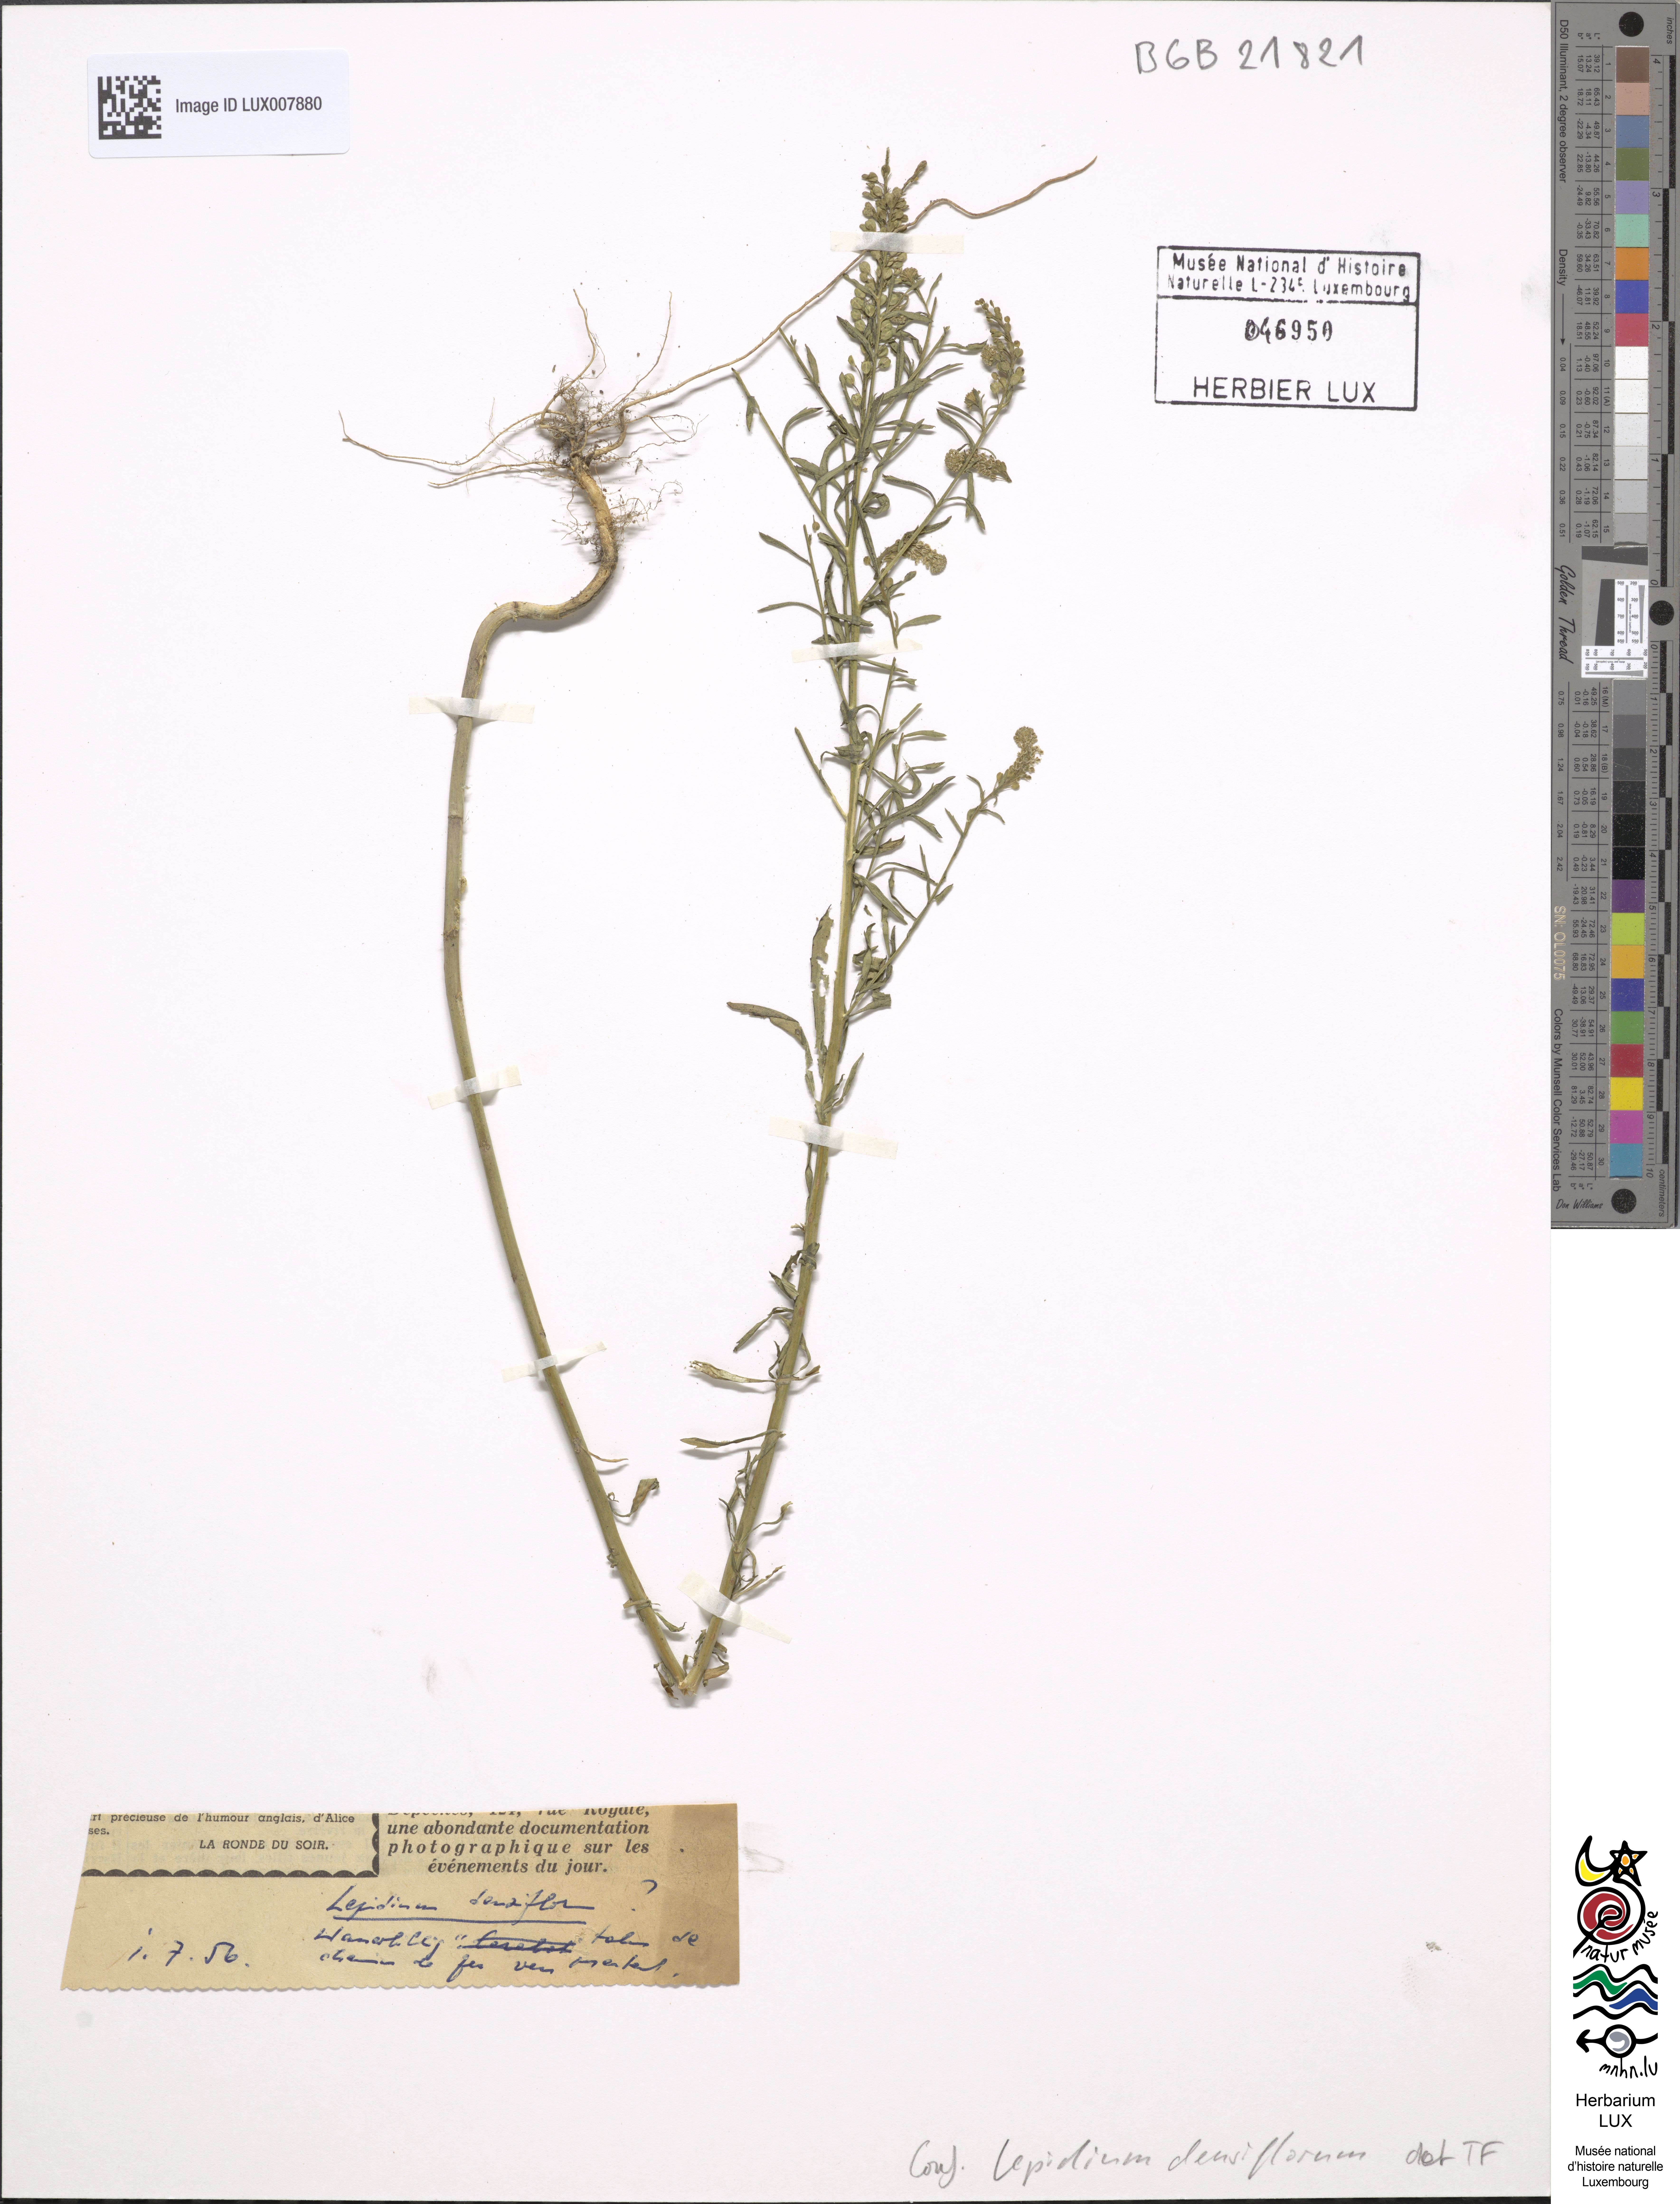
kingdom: Plantae
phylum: Tracheophyta
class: Magnoliopsida
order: Brassicales
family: Brassicaceae
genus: Lepidium
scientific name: Lepidium densiflorum
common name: Miner's pepperwort
